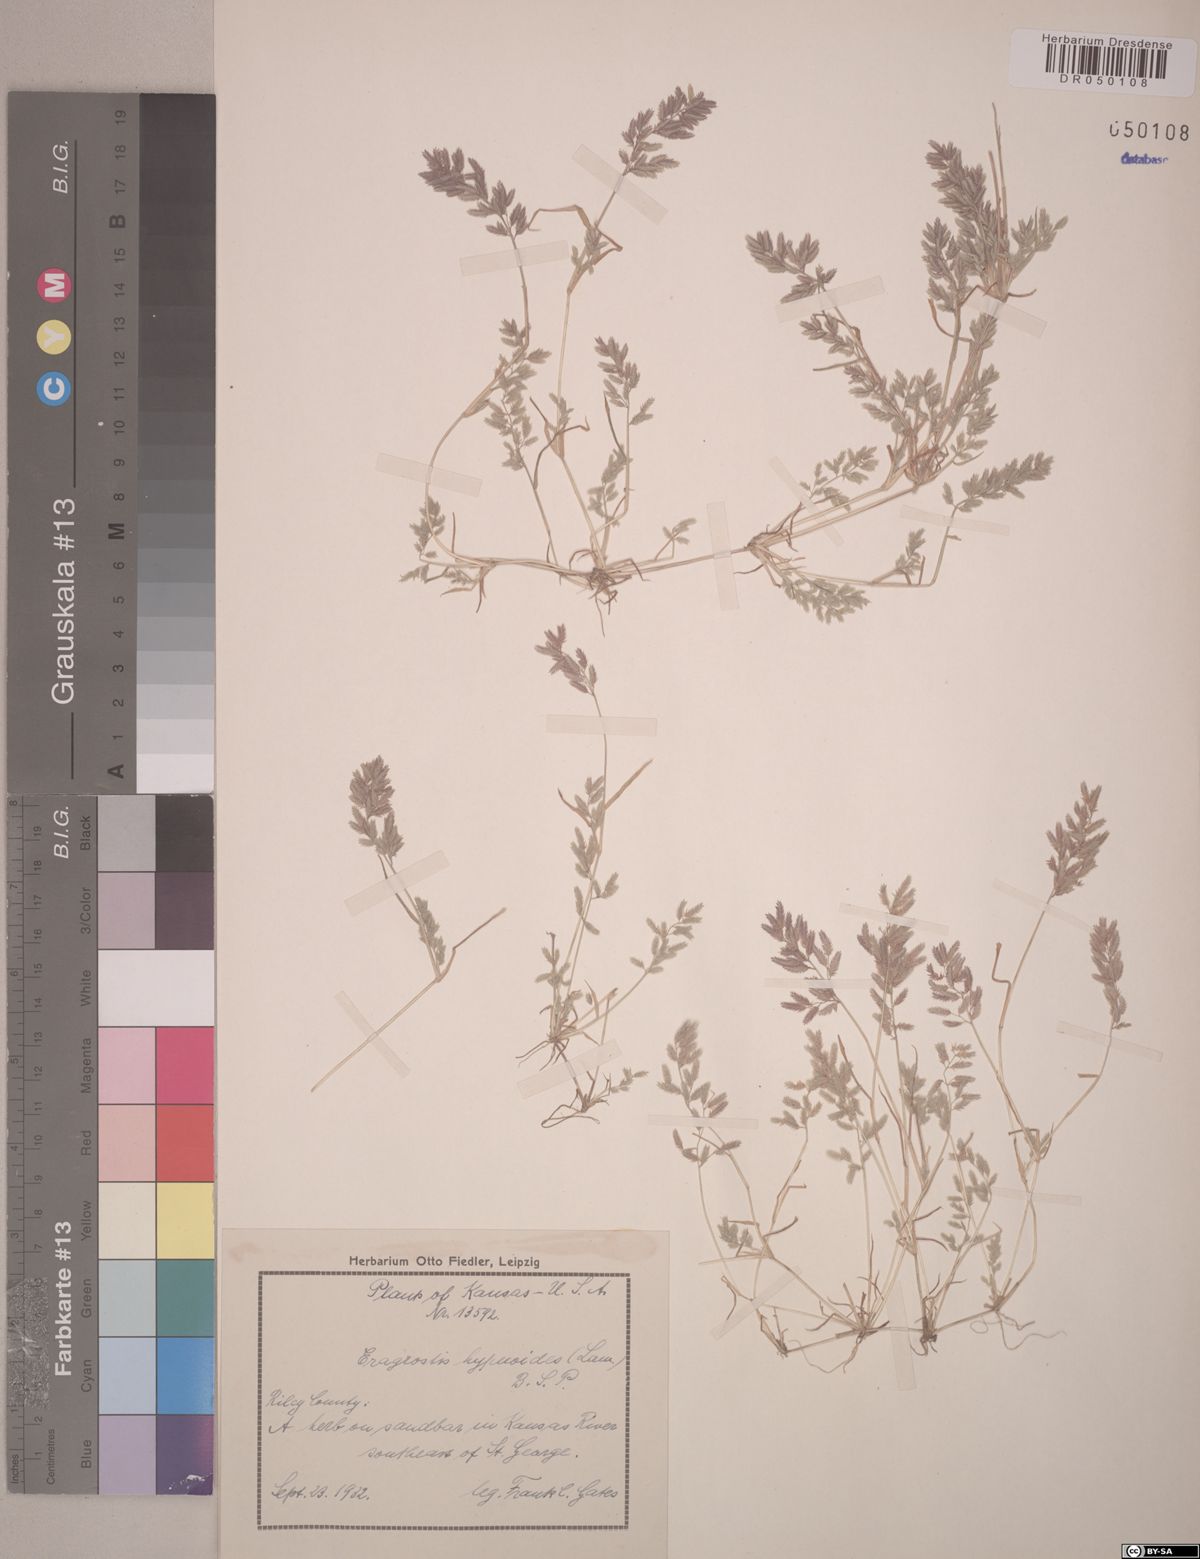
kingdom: Plantae
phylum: Tracheophyta
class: Liliopsida
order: Poales
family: Poaceae
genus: Eragrostis
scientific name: Eragrostis hypnoides
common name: Creeping love grass
